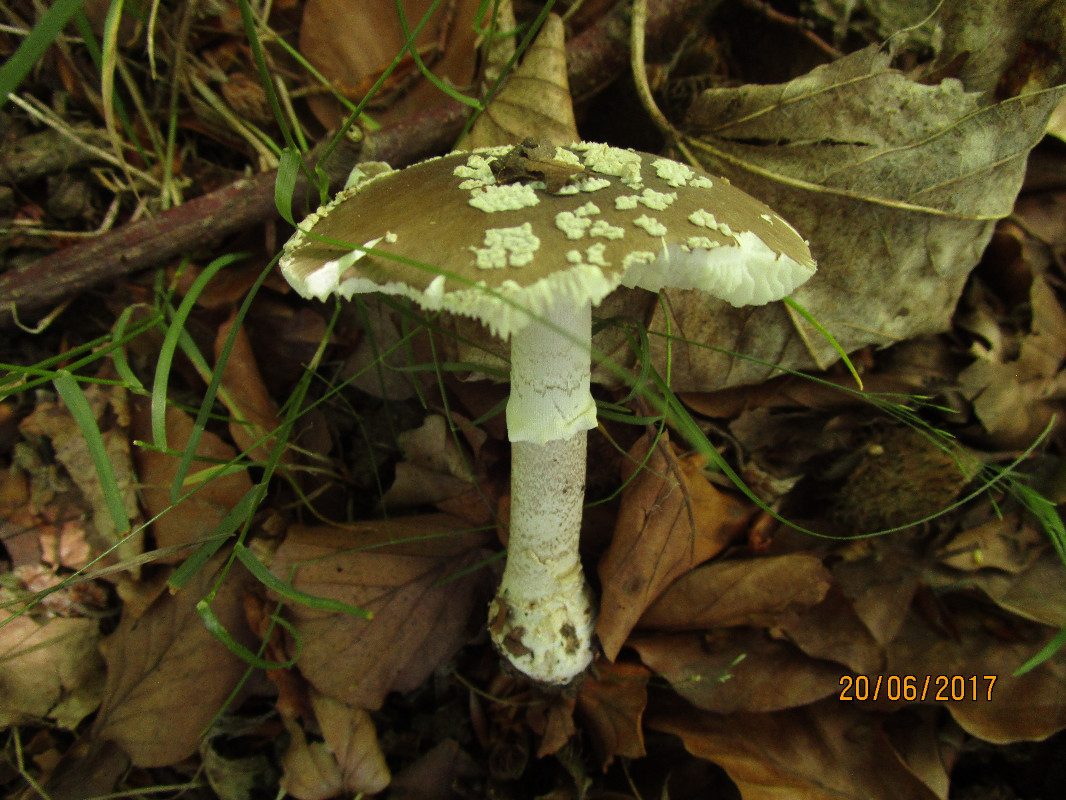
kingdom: Fungi
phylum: Basidiomycota
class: Agaricomycetes
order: Agaricales
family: Amanitaceae
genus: Amanita
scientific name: Amanita
